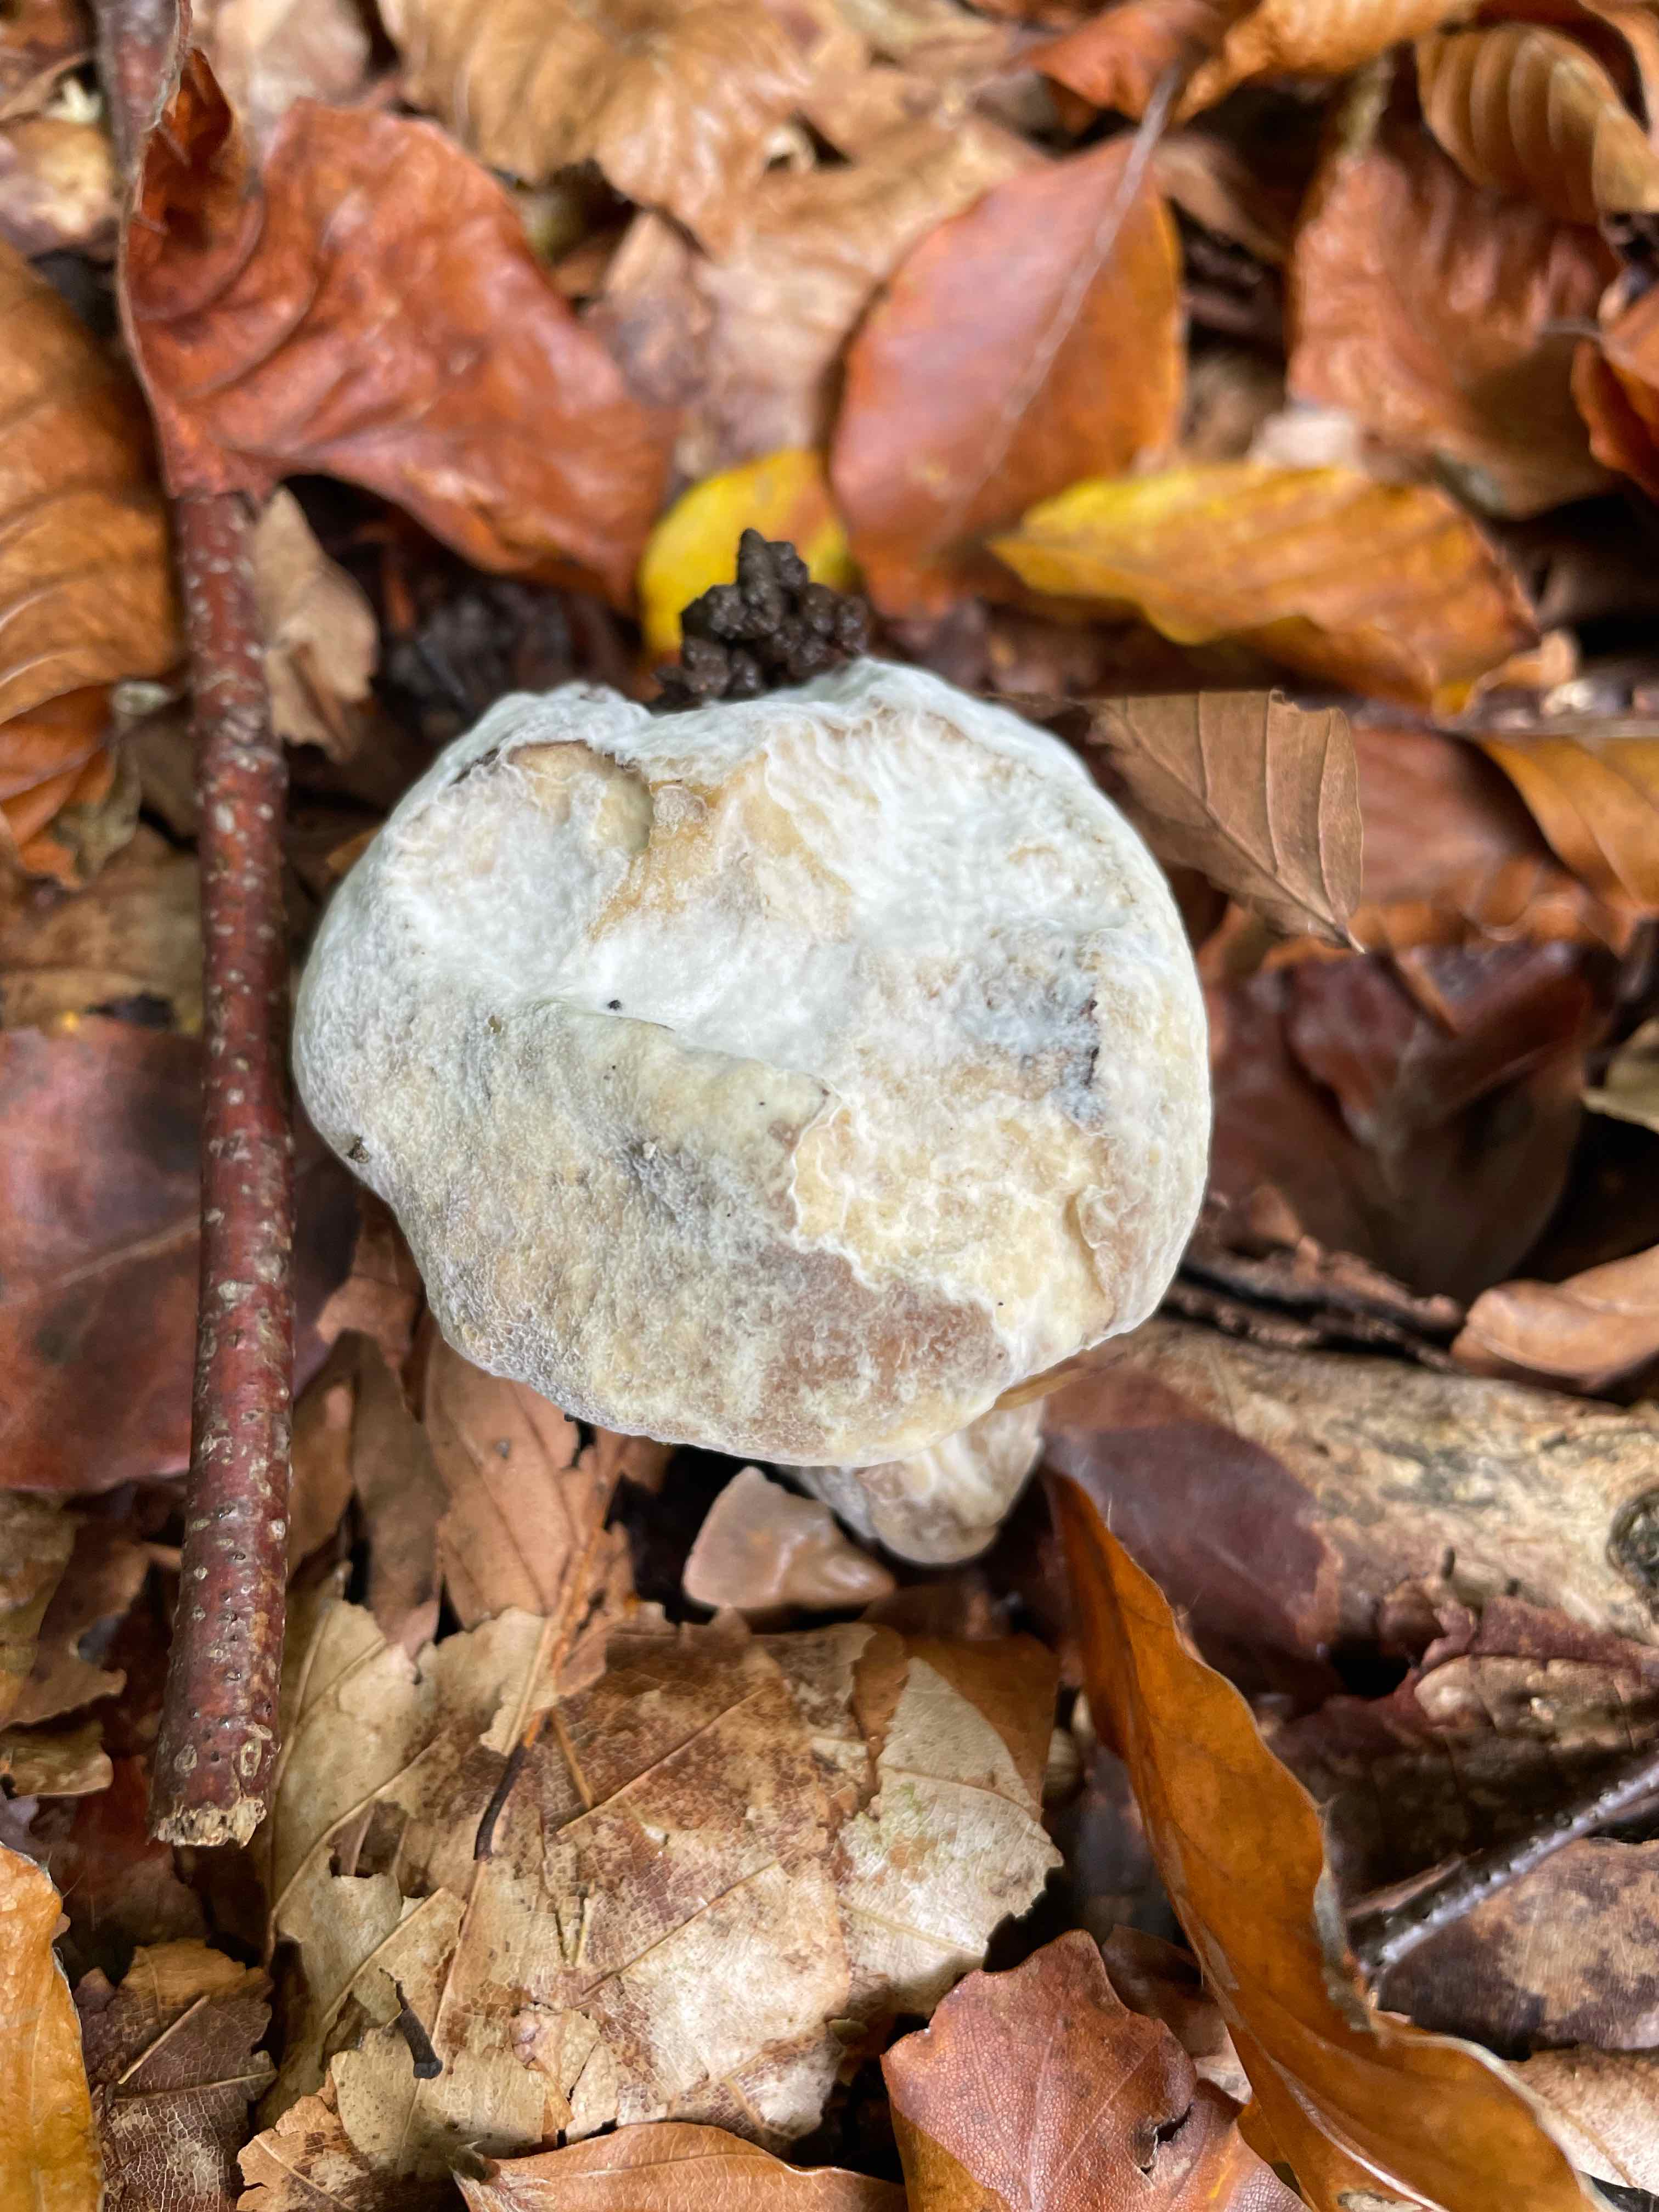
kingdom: Fungi
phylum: Ascomycota
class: Sordariomycetes
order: Hypocreales
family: Hypocreaceae
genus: Hypomyces
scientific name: Hypomyces
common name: snylteskorpe
